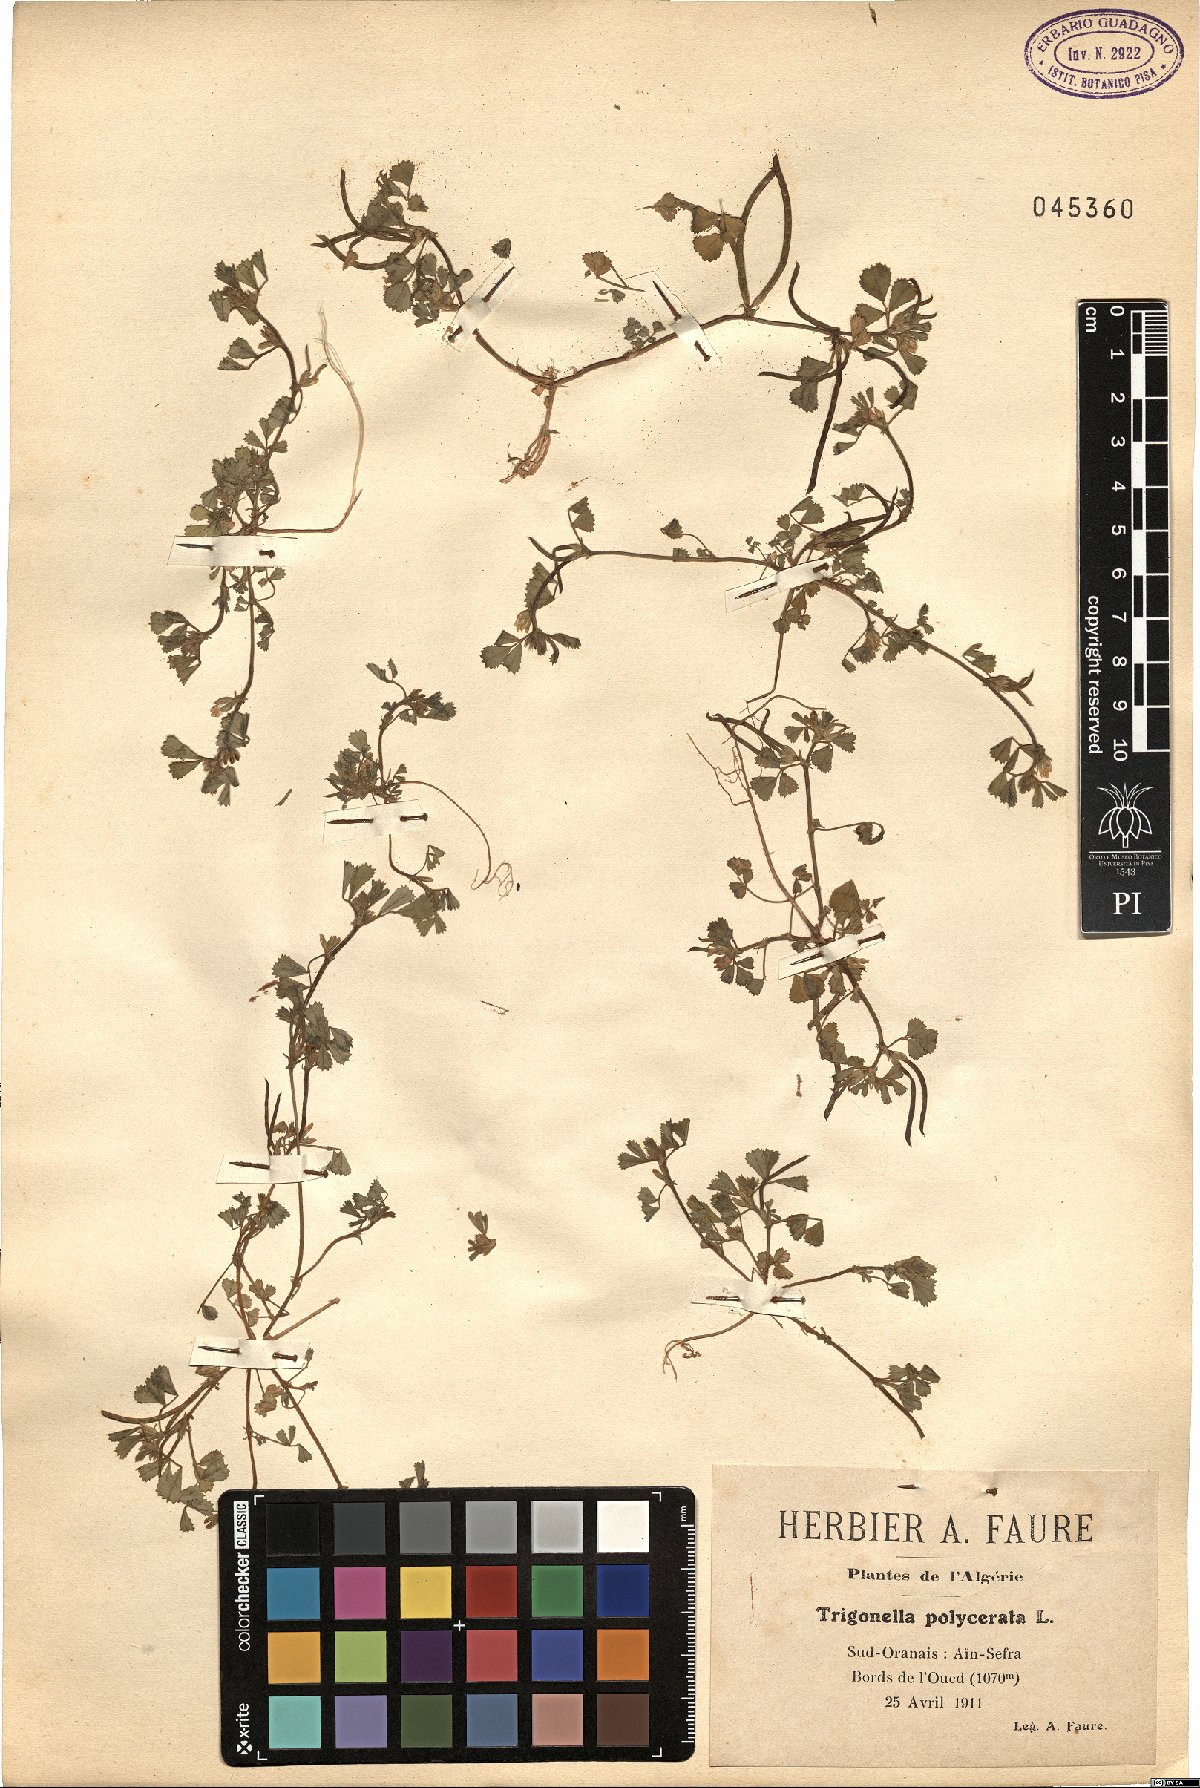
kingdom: Plantae
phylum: Tracheophyta
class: Magnoliopsida
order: Fabales
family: Fabaceae
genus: Medicago
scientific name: Medicago polyceratia
